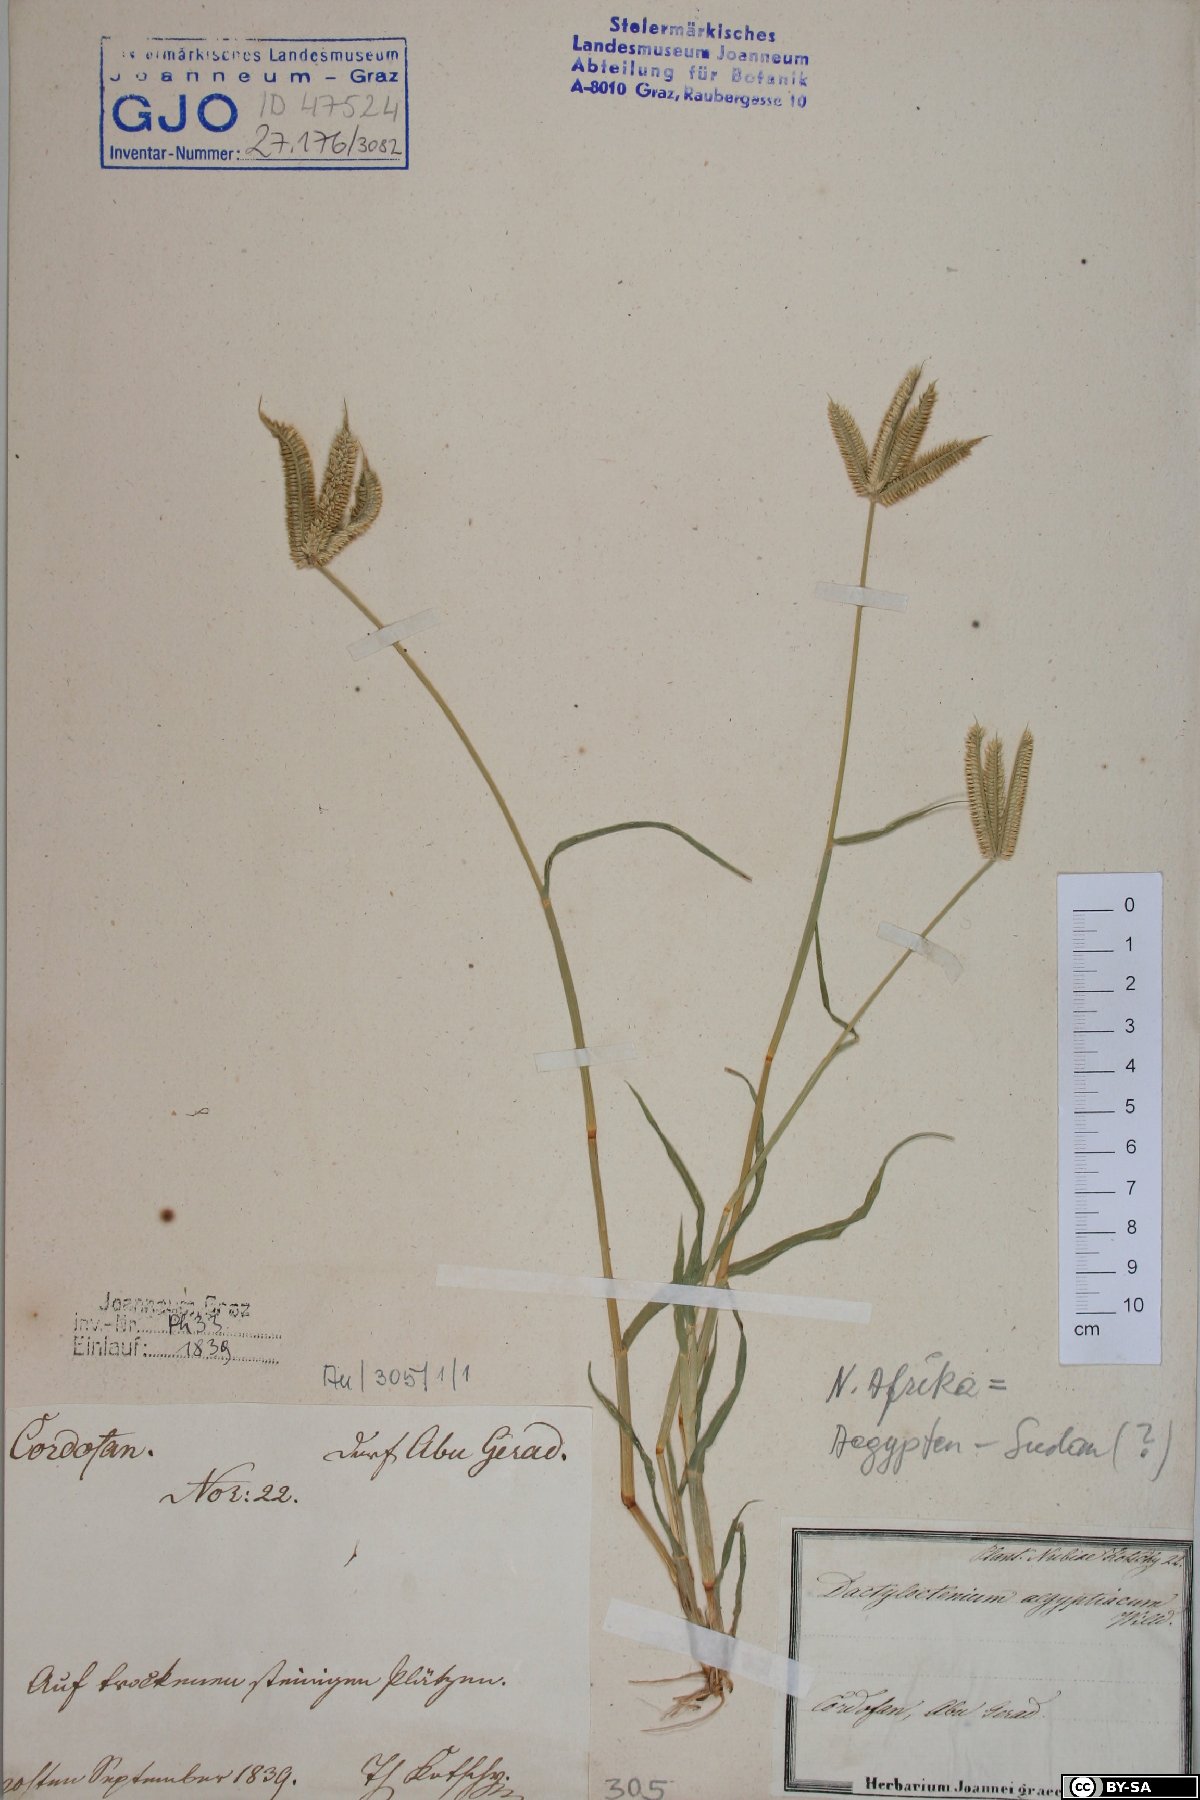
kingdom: Plantae
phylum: Tracheophyta
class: Liliopsida
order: Poales
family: Poaceae
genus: Dactyloctenium
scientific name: Dactyloctenium aegyptium
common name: Egyptian grass
